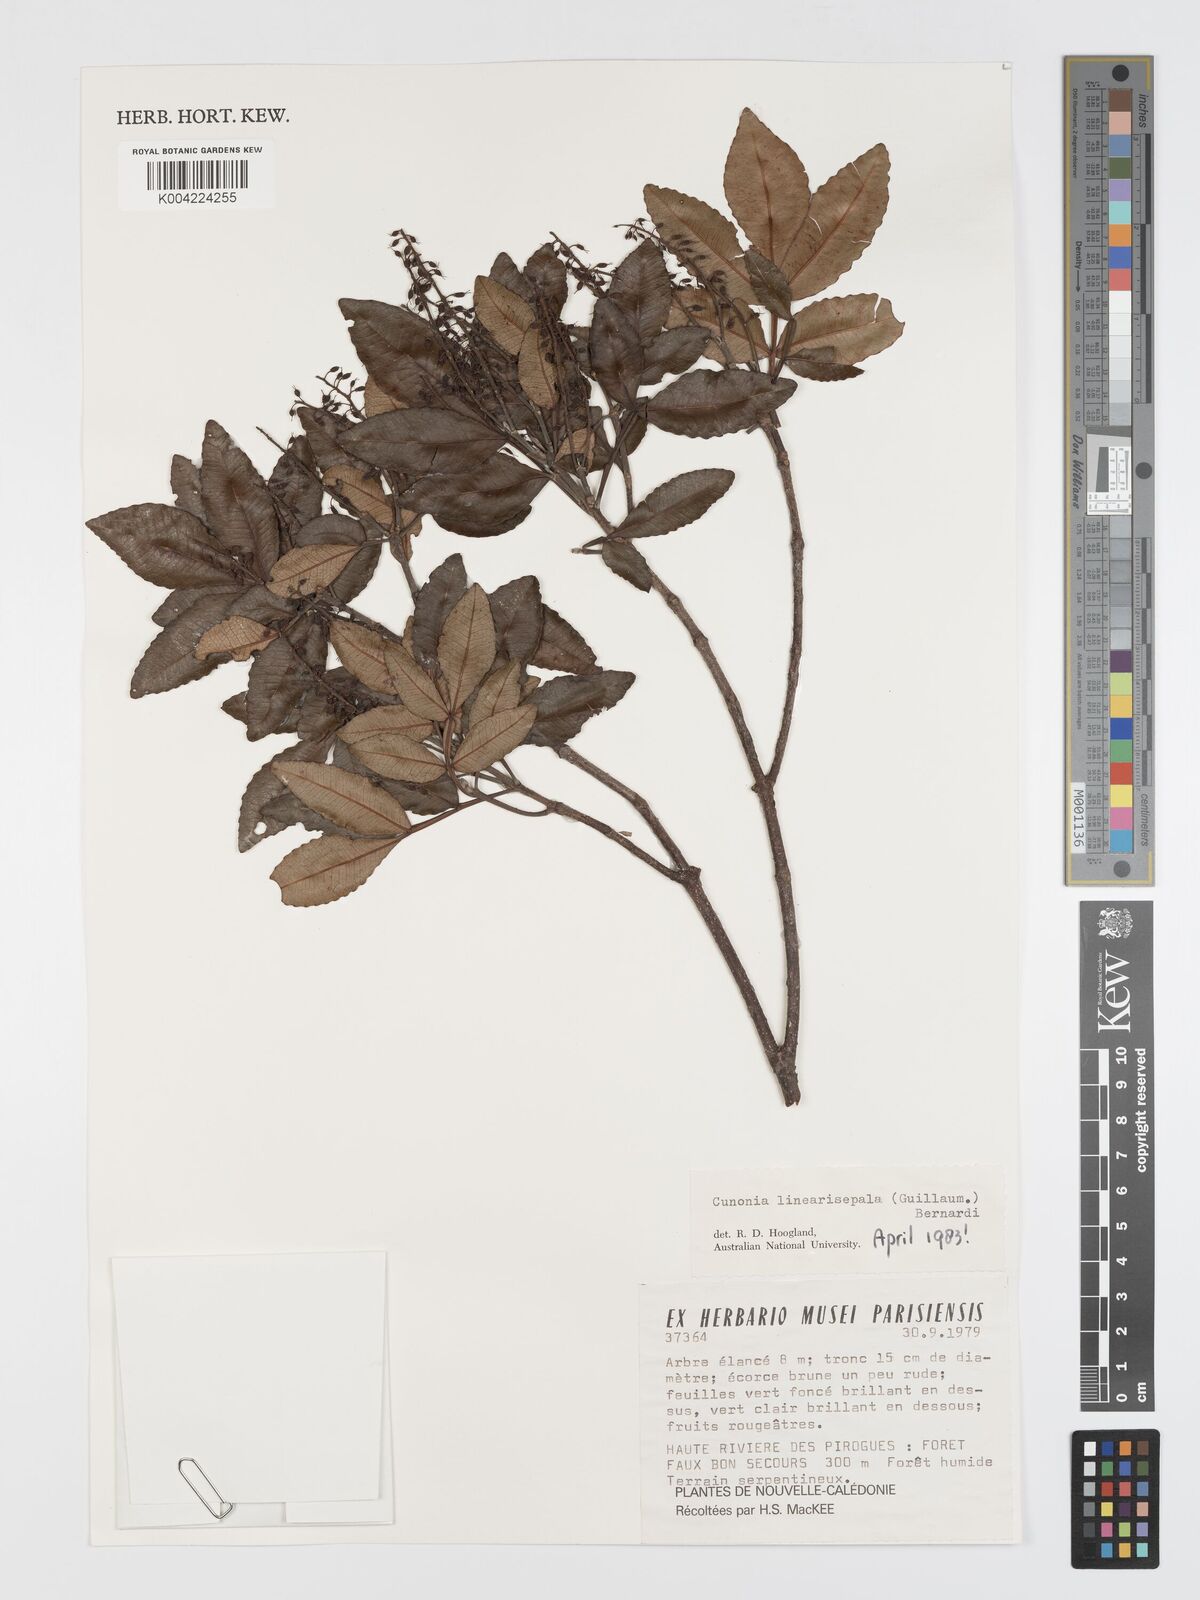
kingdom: Plantae
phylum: Tracheophyta
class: Magnoliopsida
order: Oxalidales
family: Cunoniaceae
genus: Cunonia
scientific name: Cunonia linearisepala
